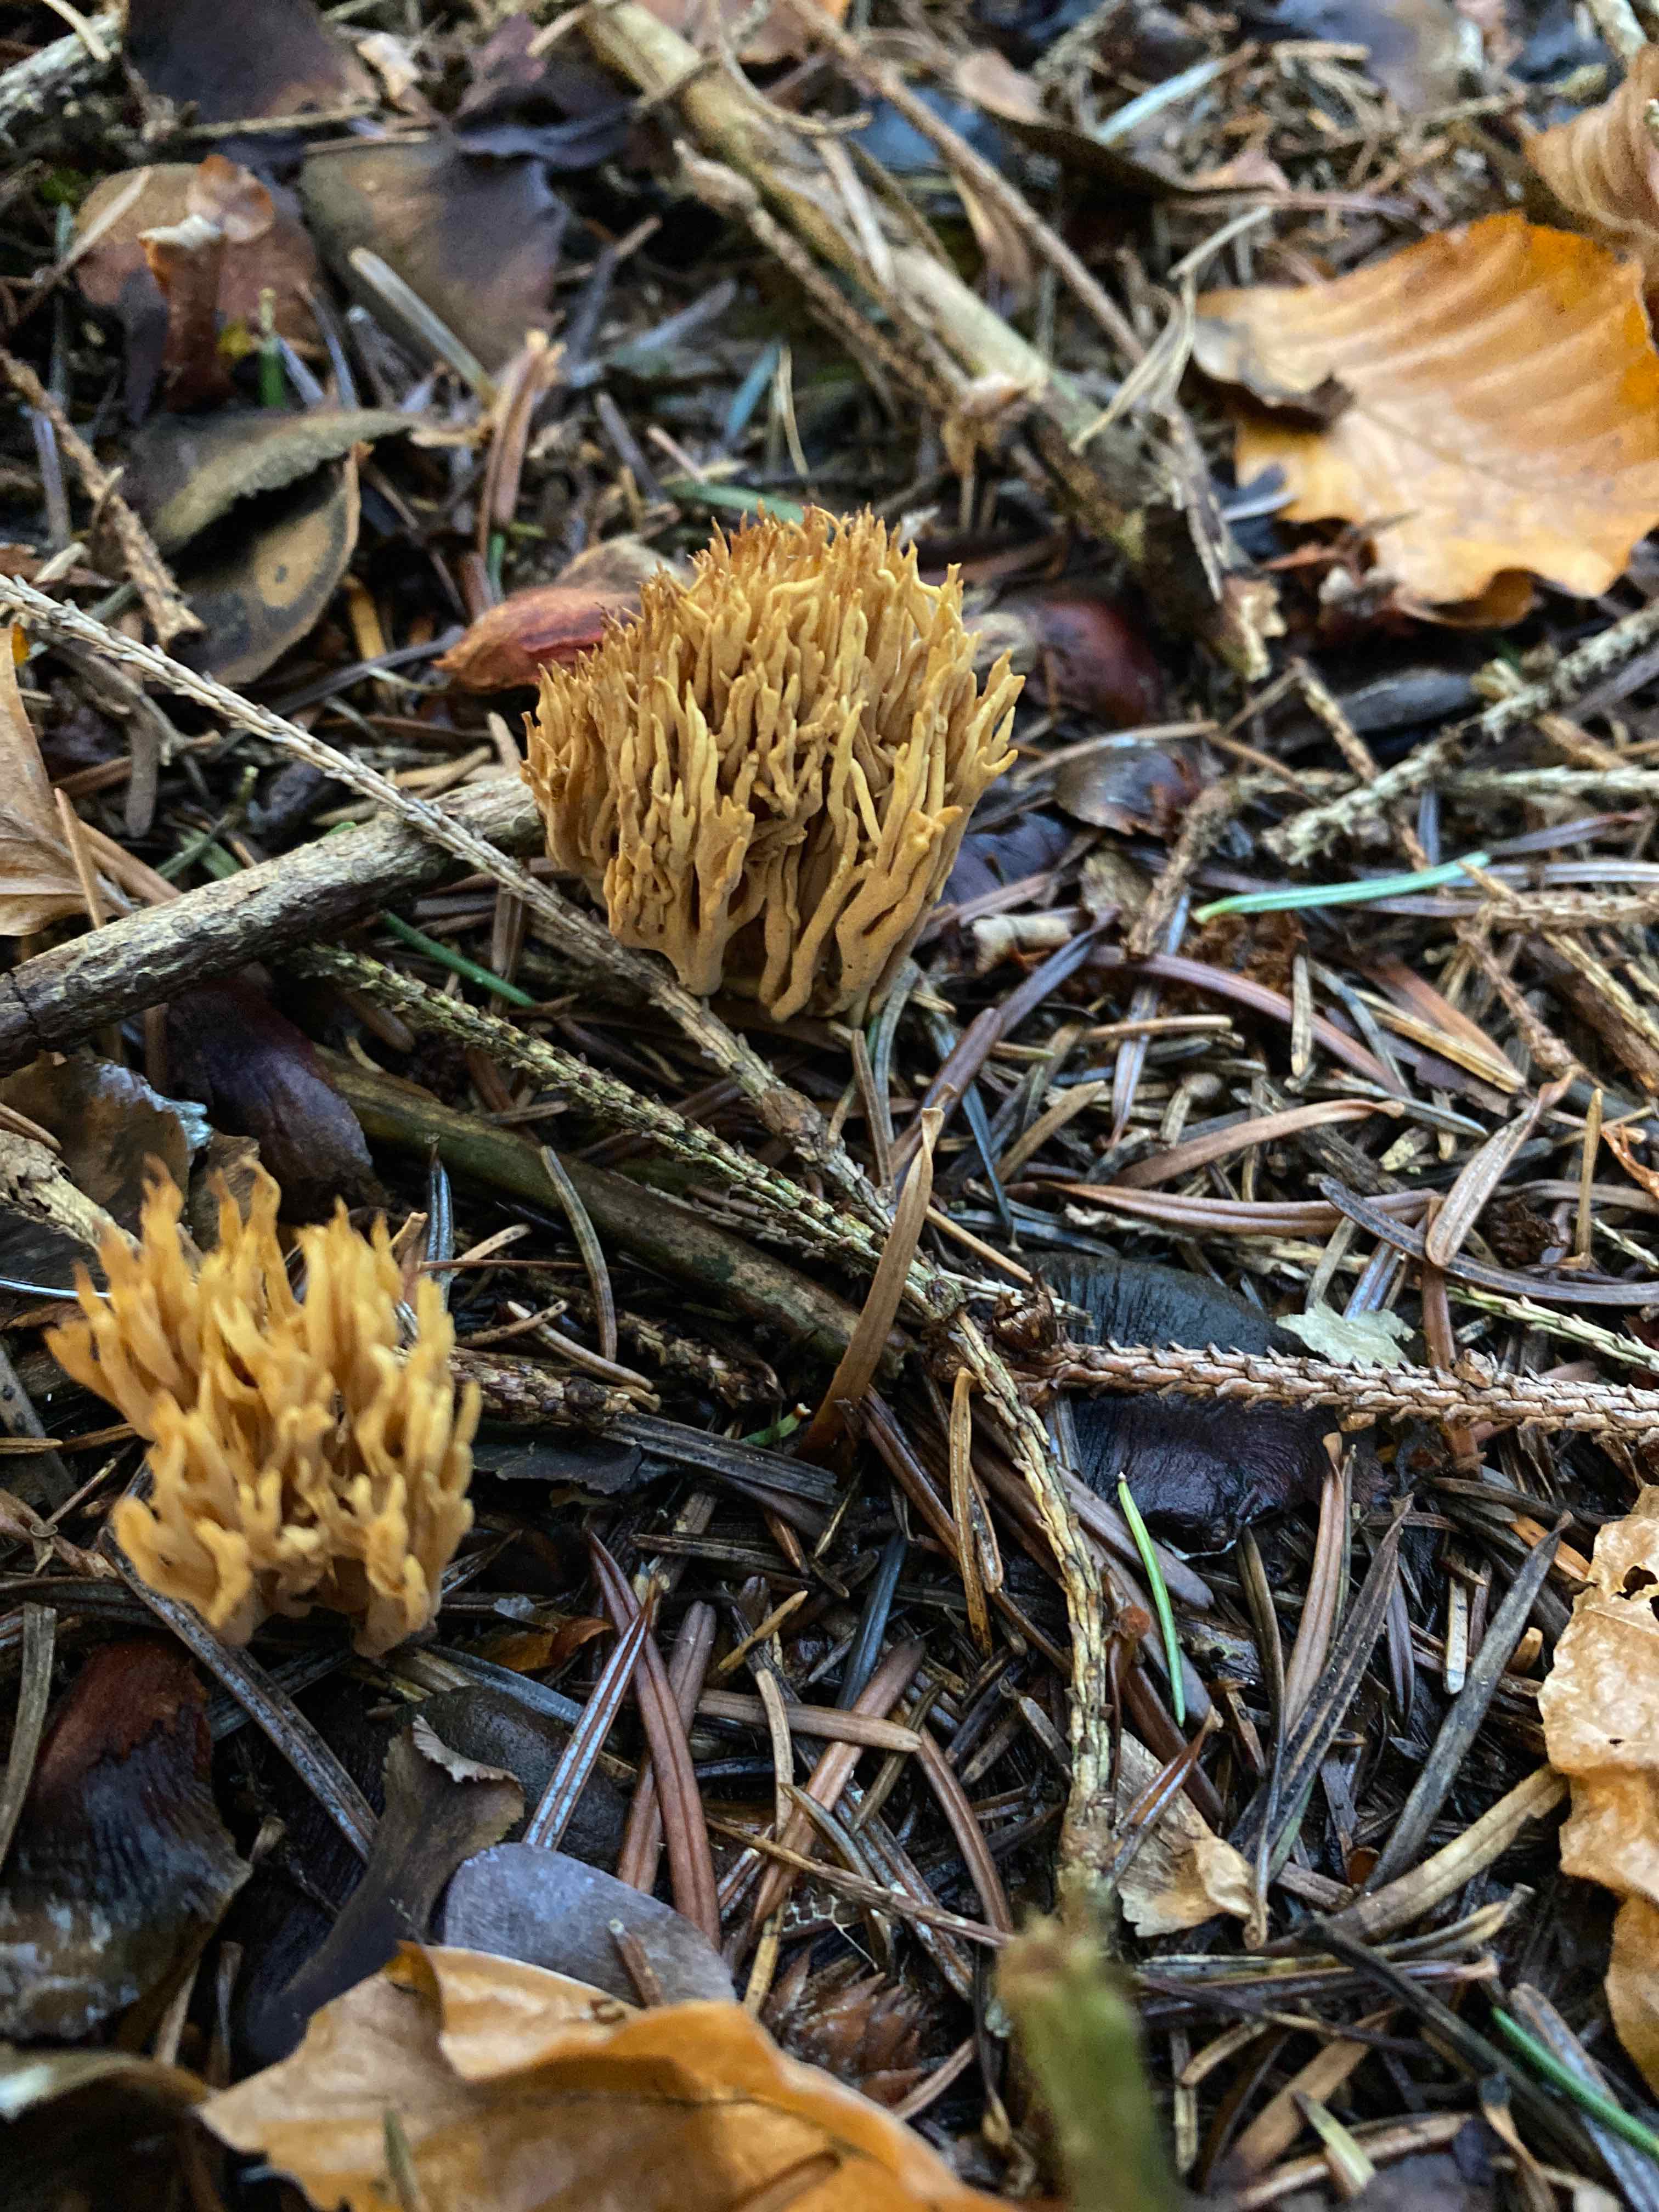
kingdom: Fungi
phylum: Basidiomycota
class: Agaricomycetes
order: Gomphales
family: Gomphaceae
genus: Phaeoclavulina
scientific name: Phaeoclavulina eumorpha
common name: gran-koralsvamp
